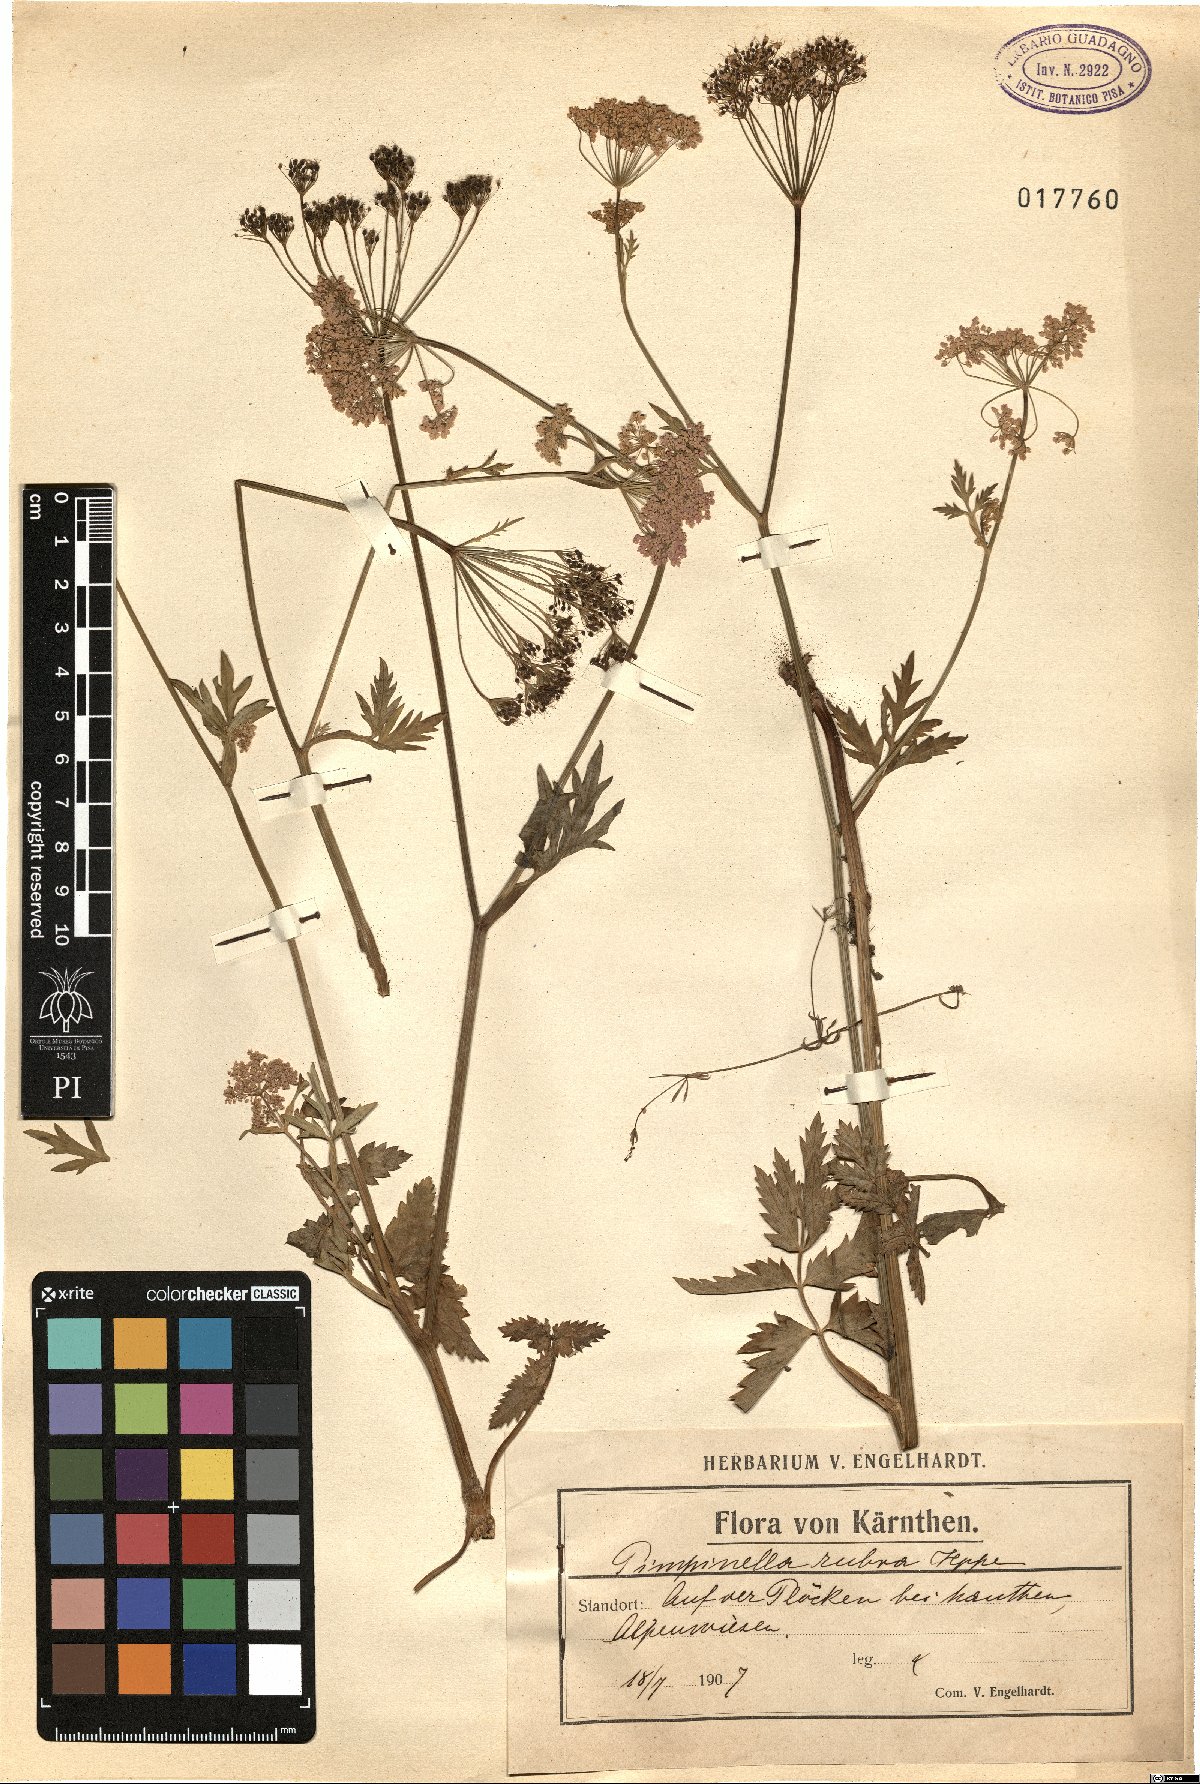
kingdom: Plantae
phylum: Tracheophyta
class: Magnoliopsida
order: Apiales
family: Apiaceae
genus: Pimpinella
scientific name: Pimpinella major
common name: Greater burnet-saxifrage
